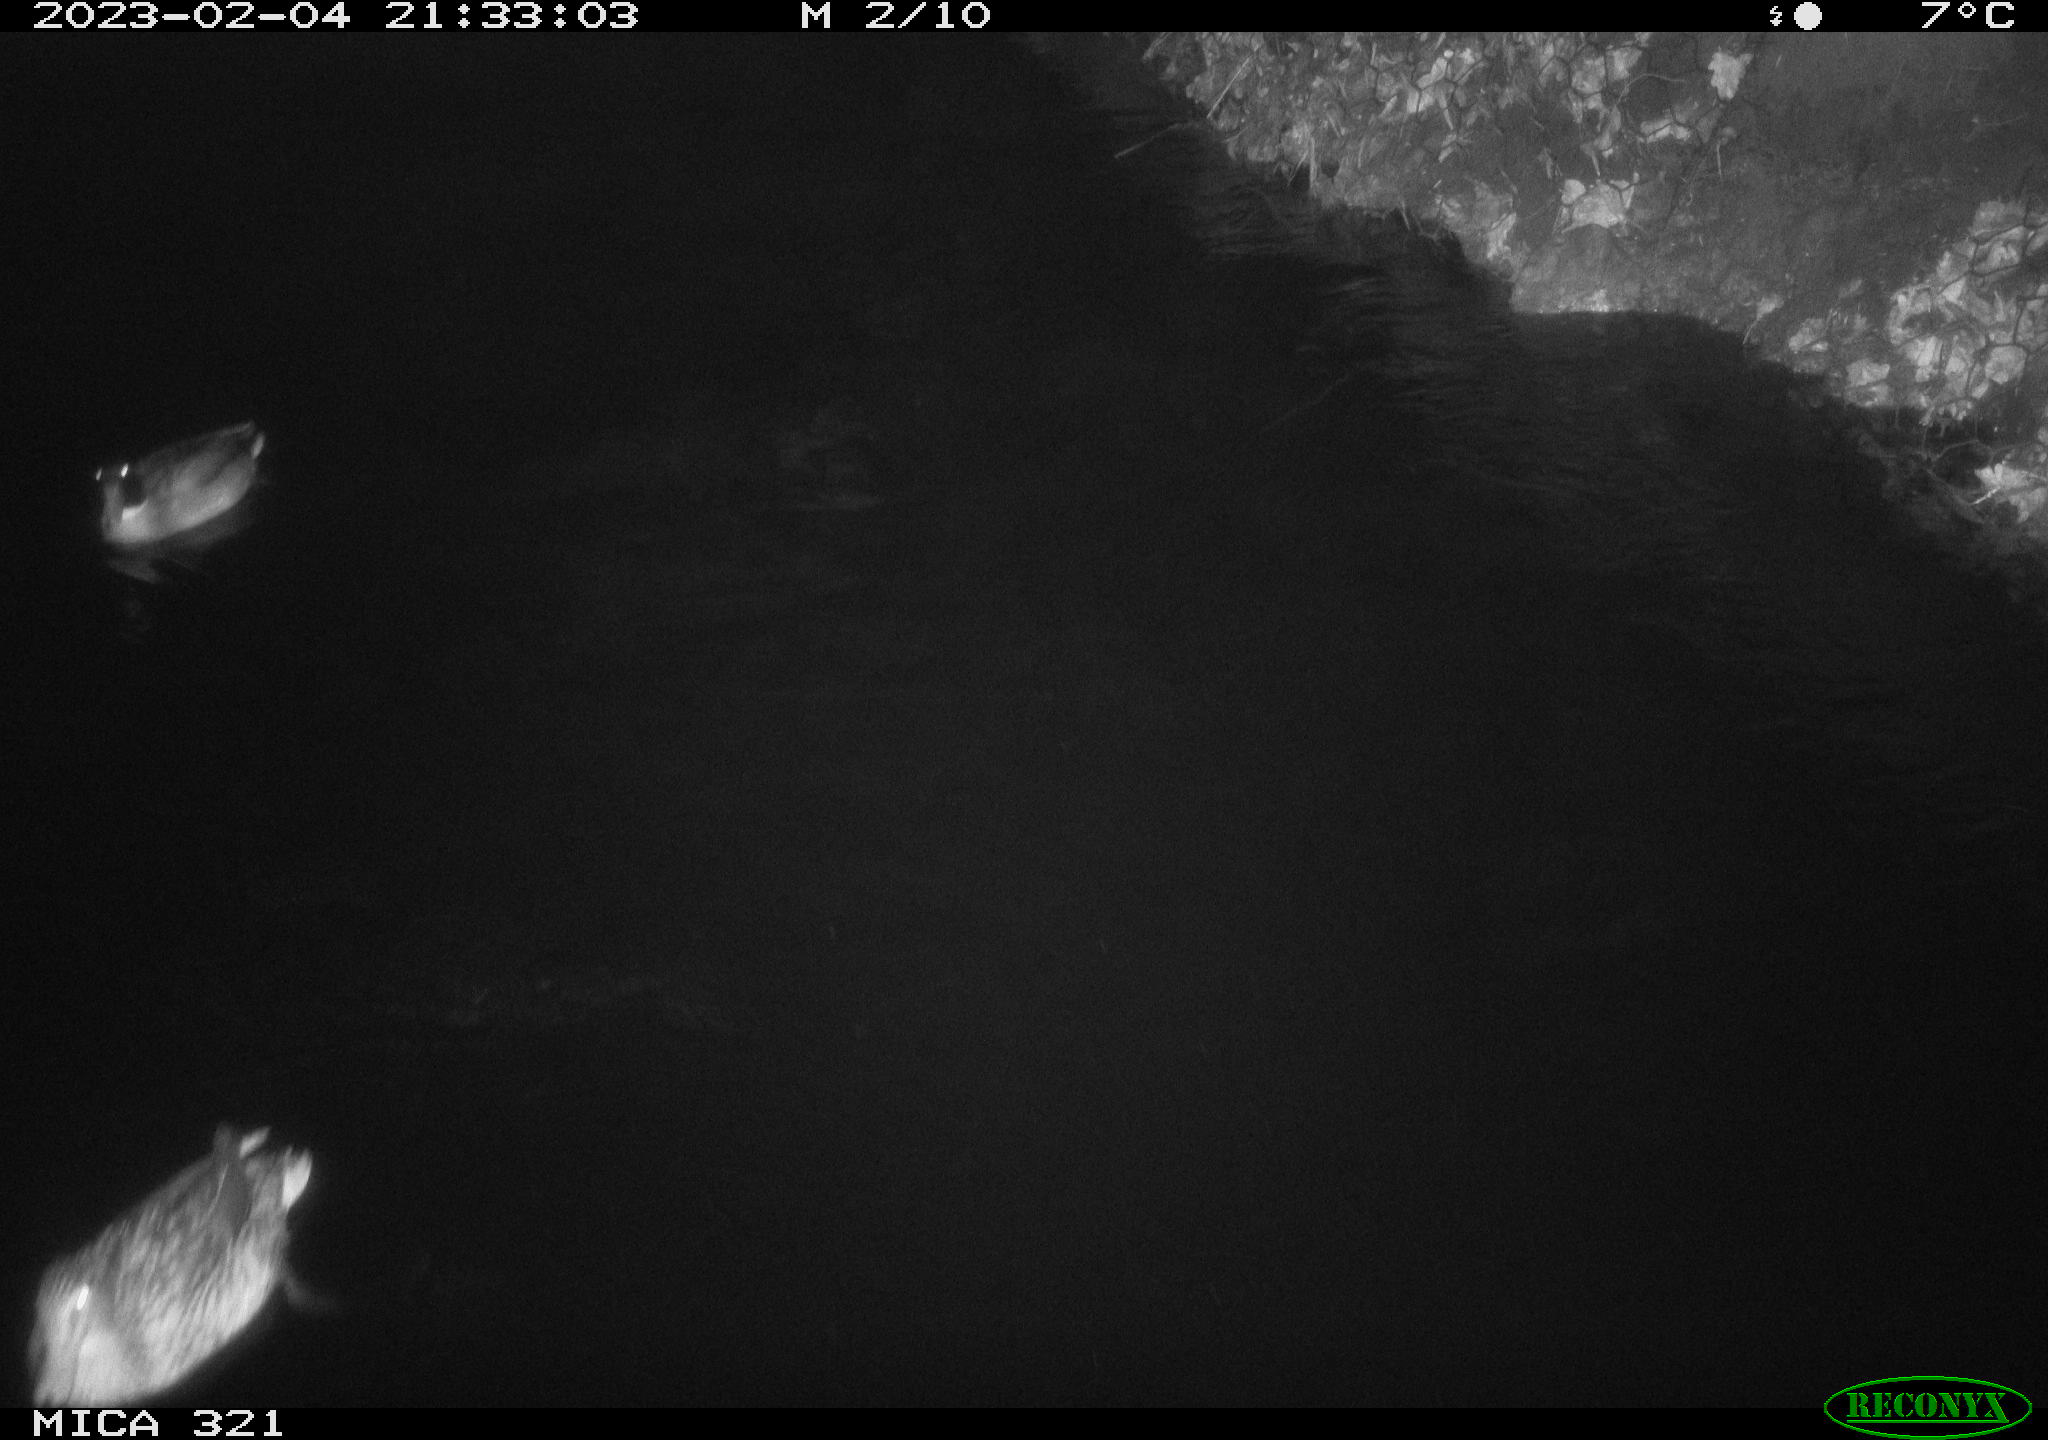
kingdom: Animalia
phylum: Chordata
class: Aves
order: Anseriformes
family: Anatidae
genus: Anas
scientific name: Anas
